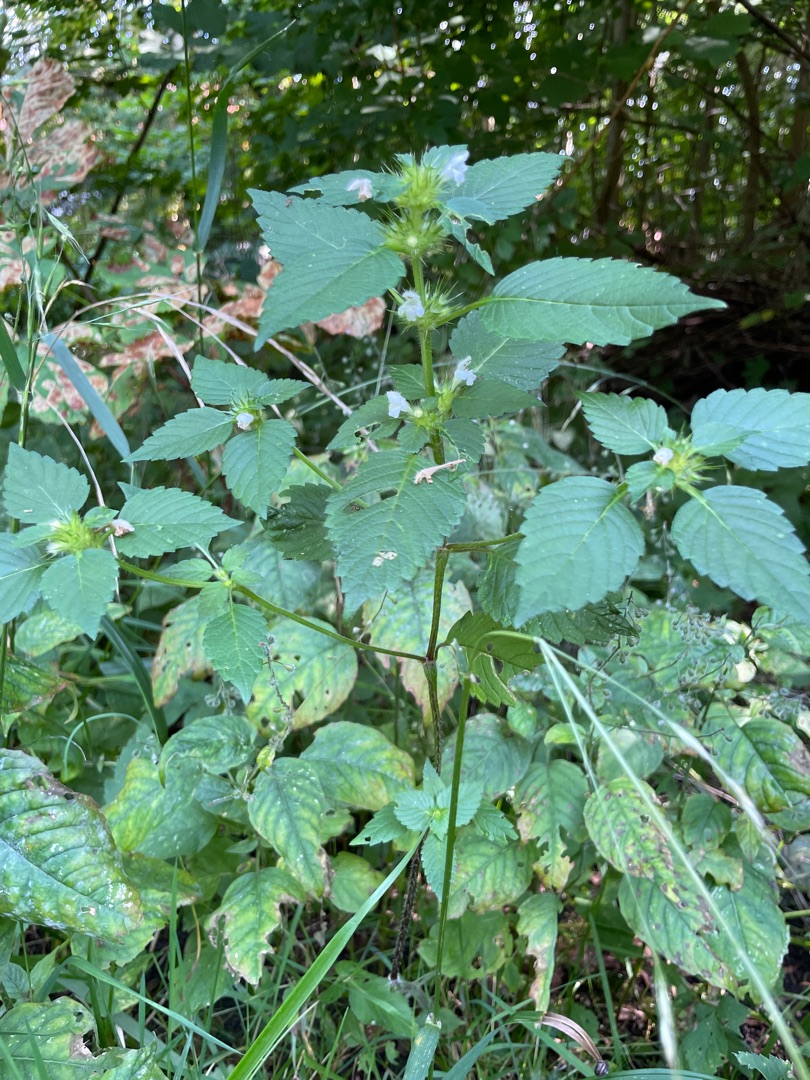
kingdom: Plantae
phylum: Tracheophyta
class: Magnoliopsida
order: Lamiales
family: Lamiaceae
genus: Galeopsis
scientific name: Galeopsis tetrahit
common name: Almindelig hanekro
